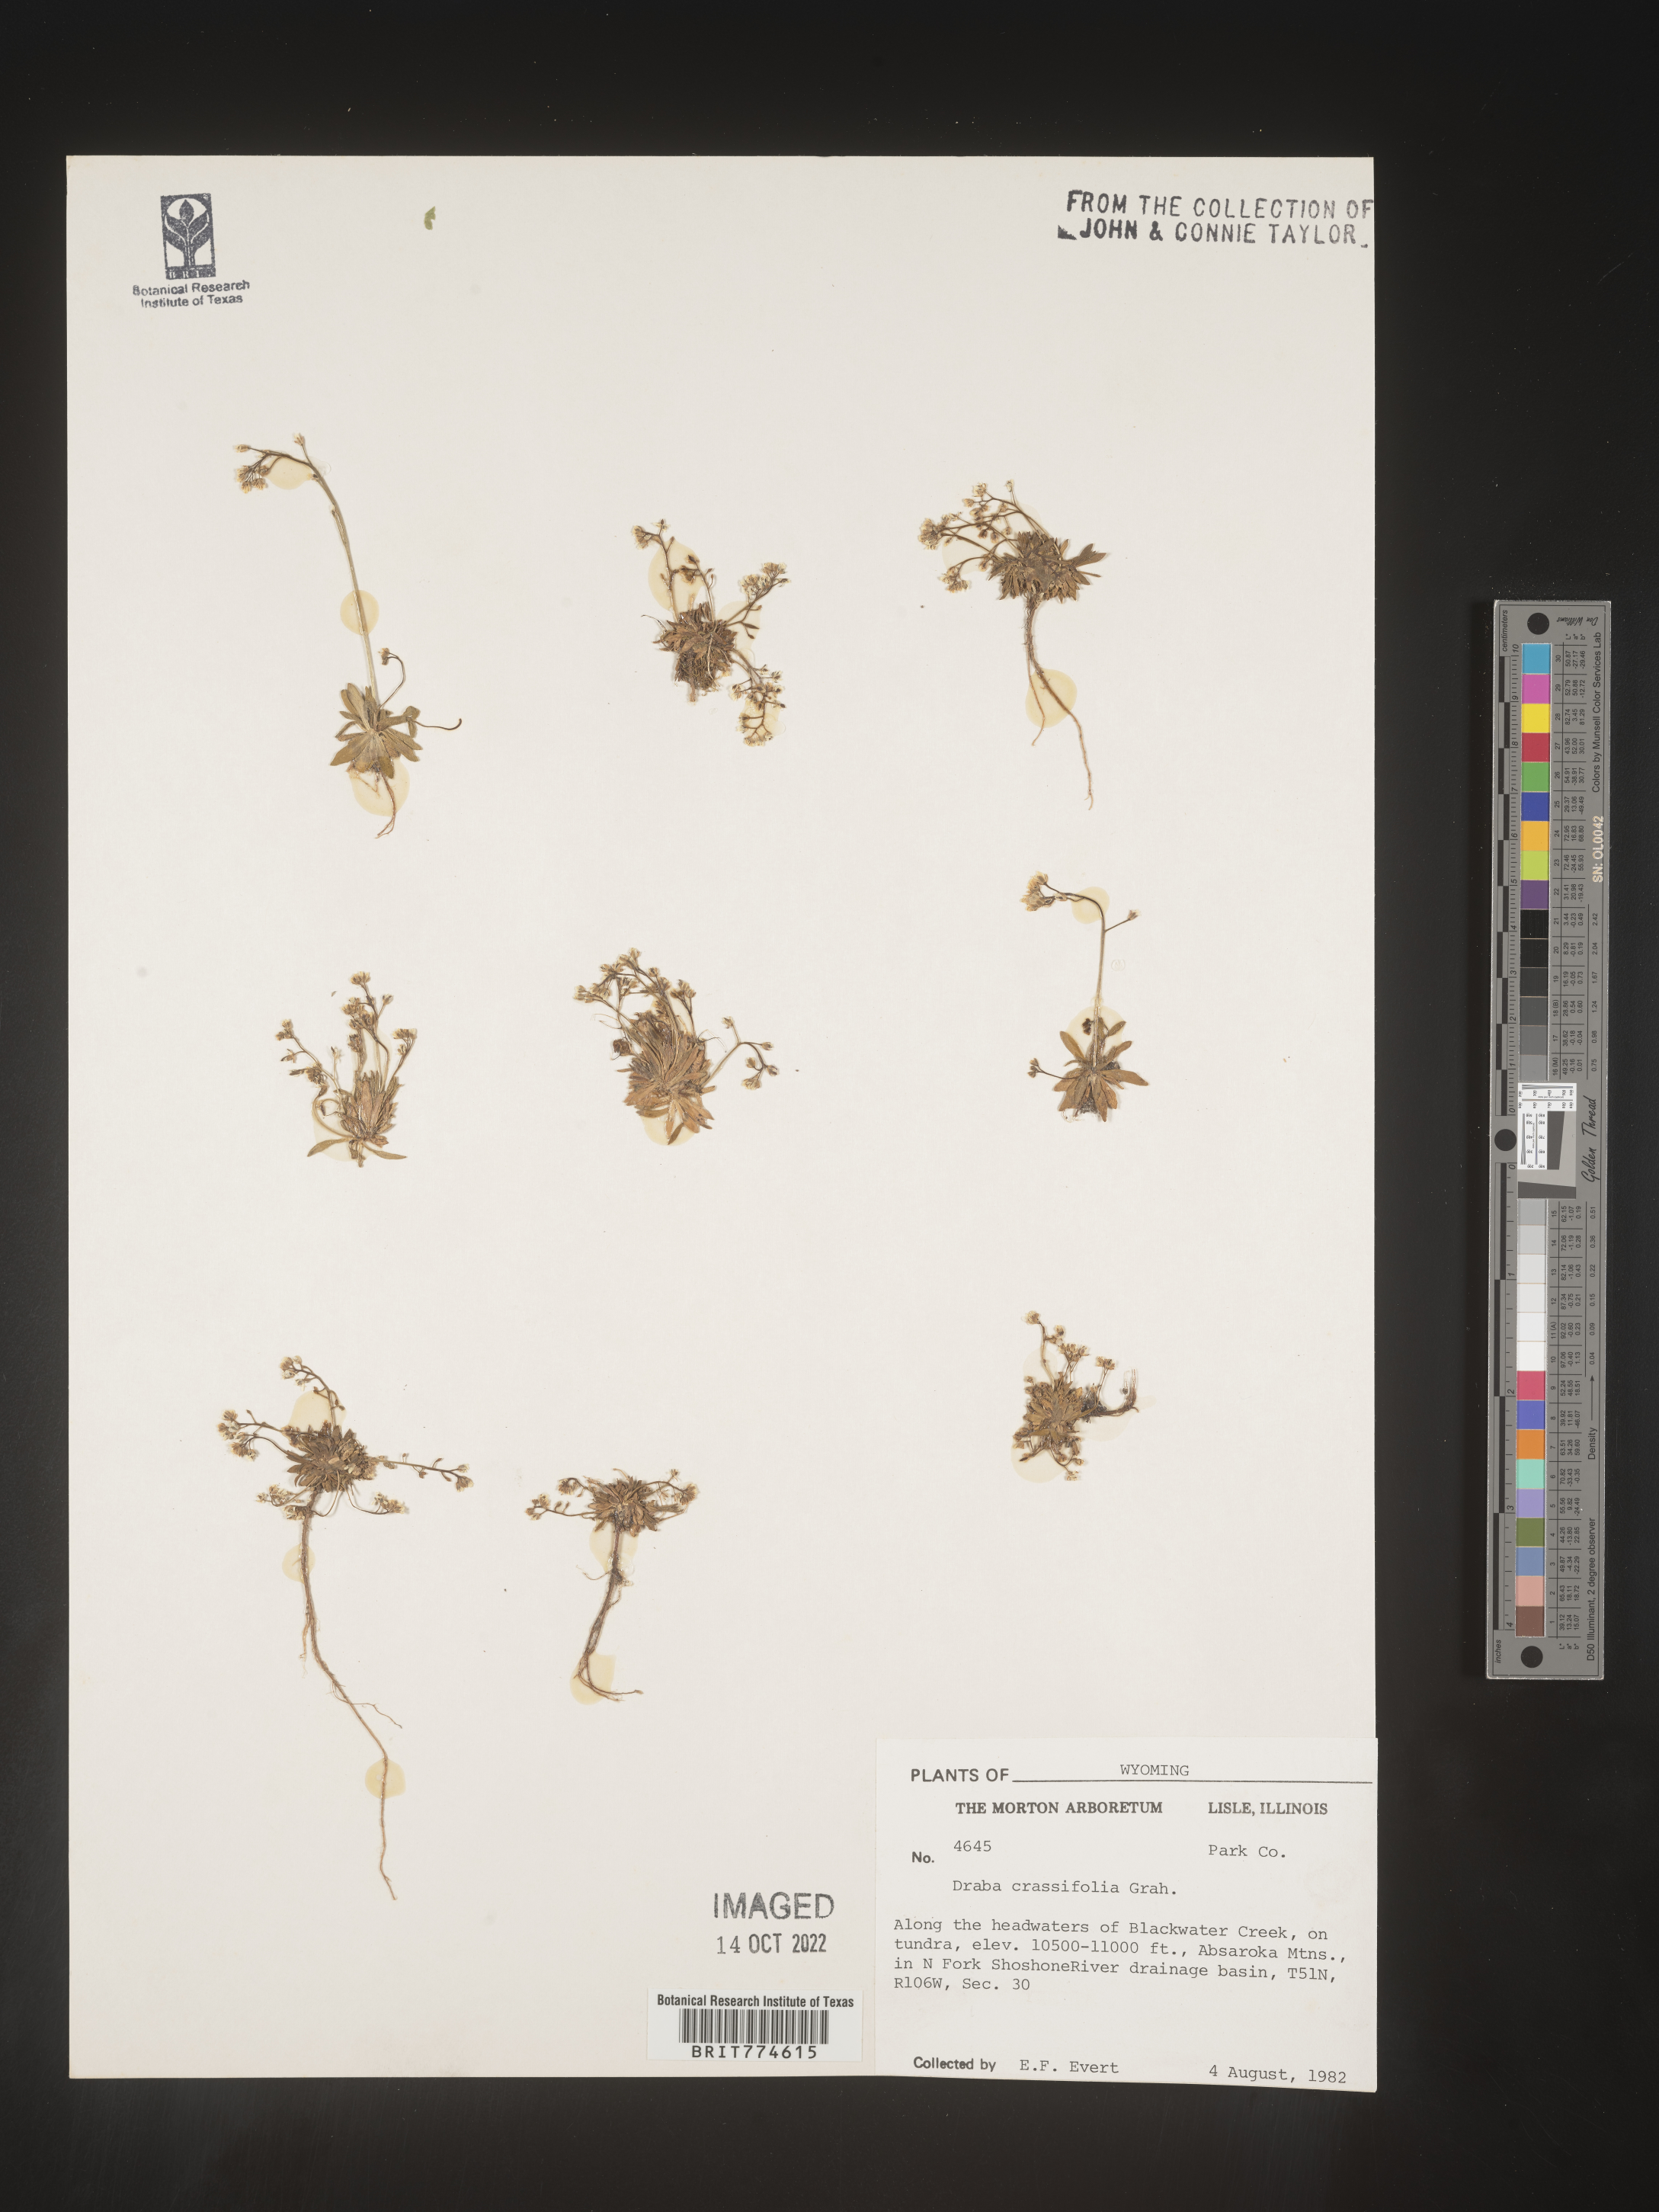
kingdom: Plantae
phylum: Tracheophyta
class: Magnoliopsida
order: Brassicales
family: Brassicaceae
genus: Draba
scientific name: Draba crassifolia
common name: Rocky mountain draba
